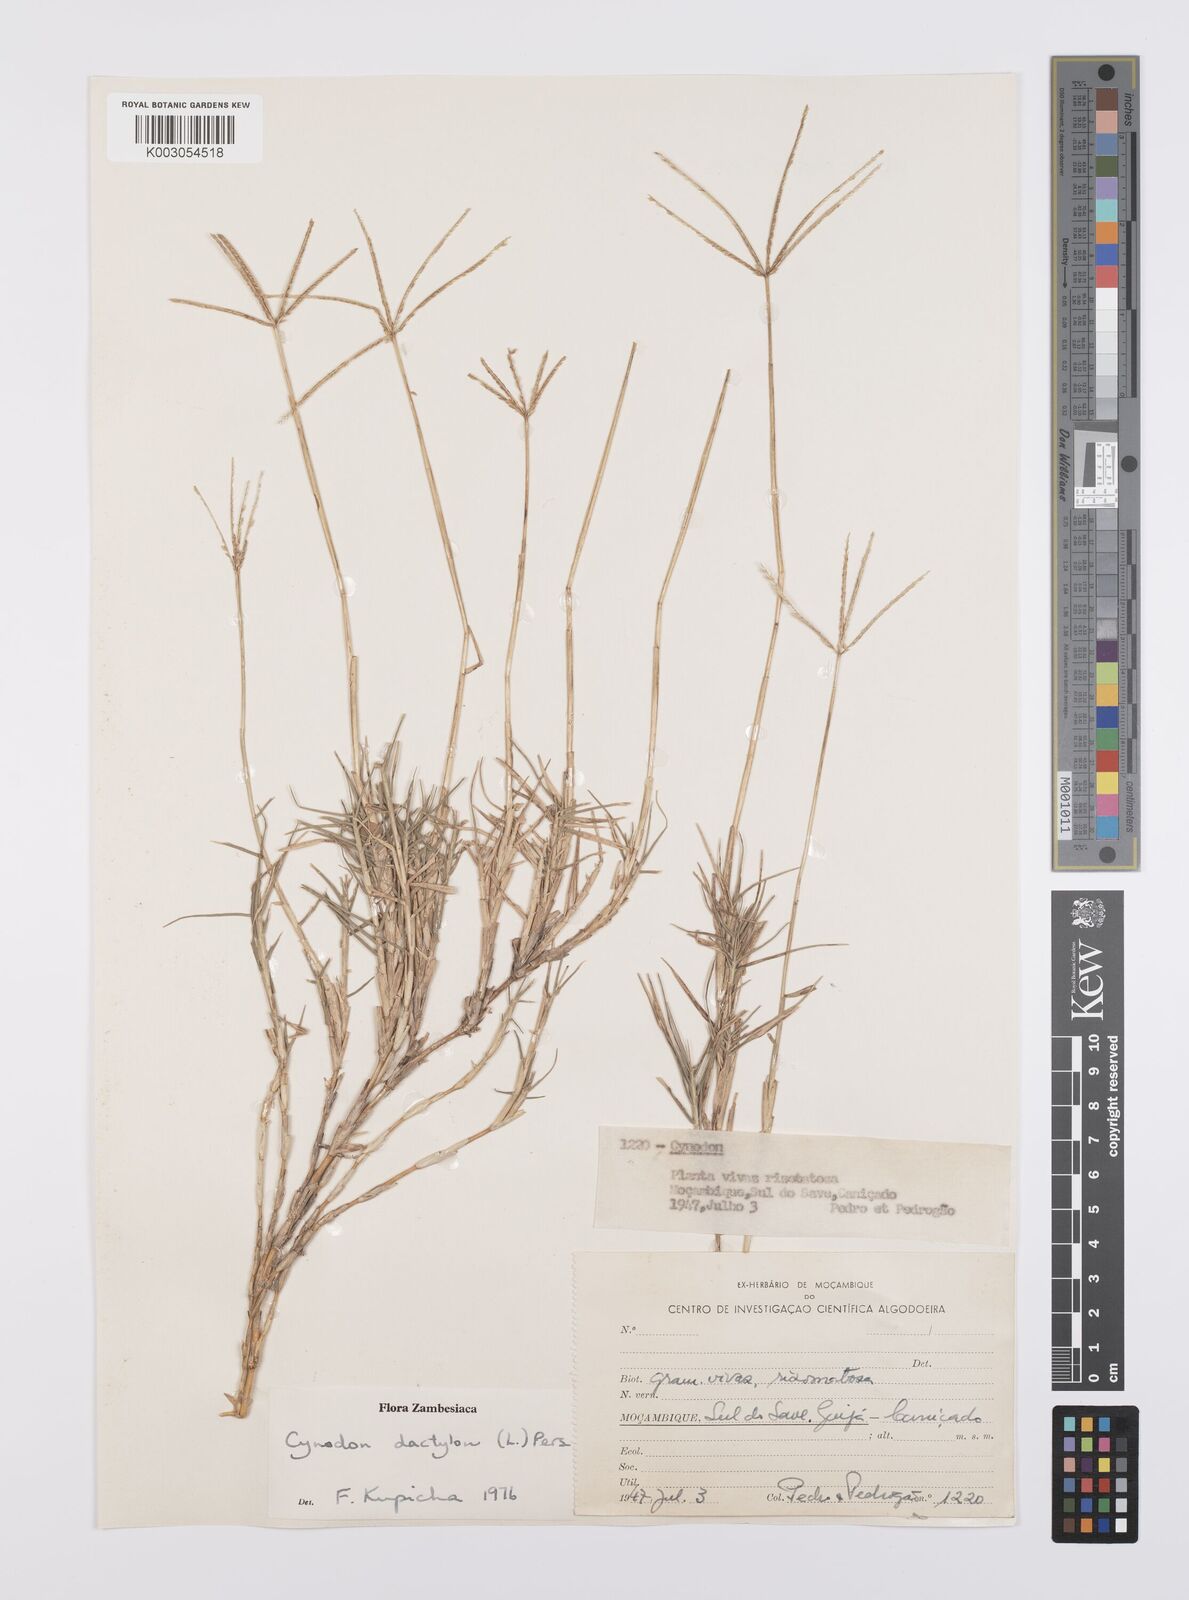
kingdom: Plantae
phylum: Tracheophyta
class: Liliopsida
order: Poales
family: Poaceae
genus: Cynodon
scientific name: Cynodon dactylon
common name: Bermuda grass
